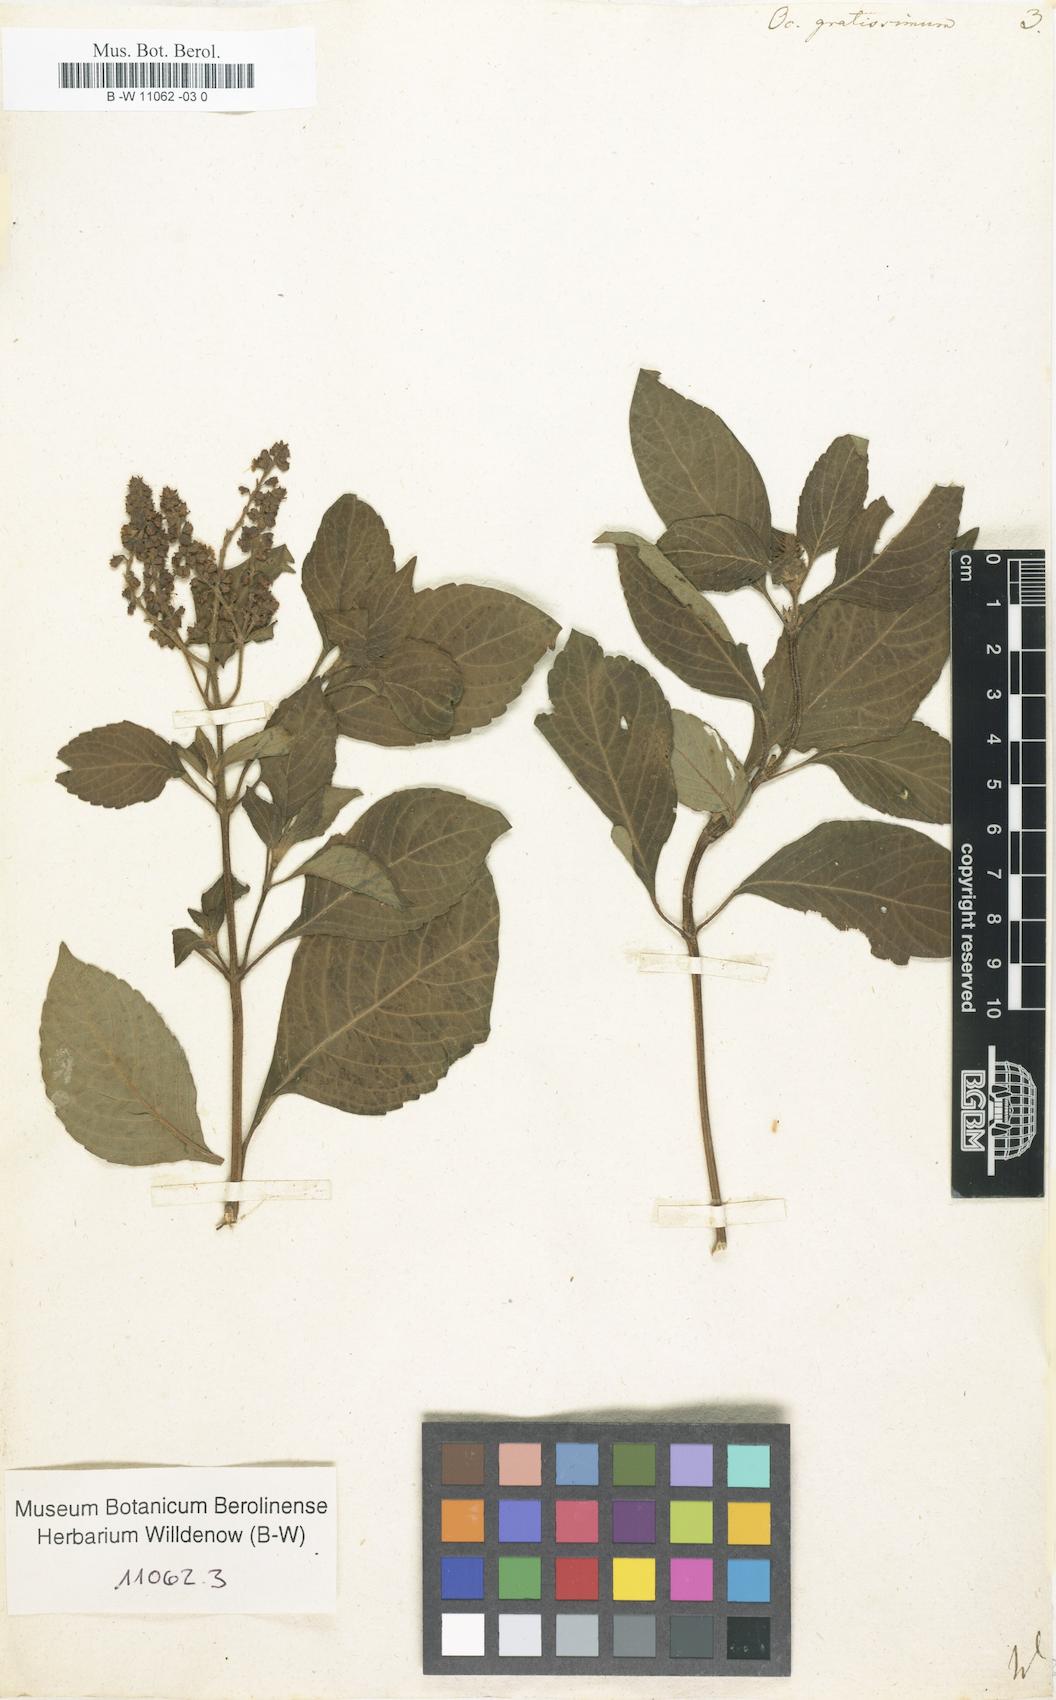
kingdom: Plantae
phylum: Tracheophyta
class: Magnoliopsida
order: Lamiales
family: Lamiaceae
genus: Ocimum
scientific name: Ocimum gratissimum
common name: African basil
